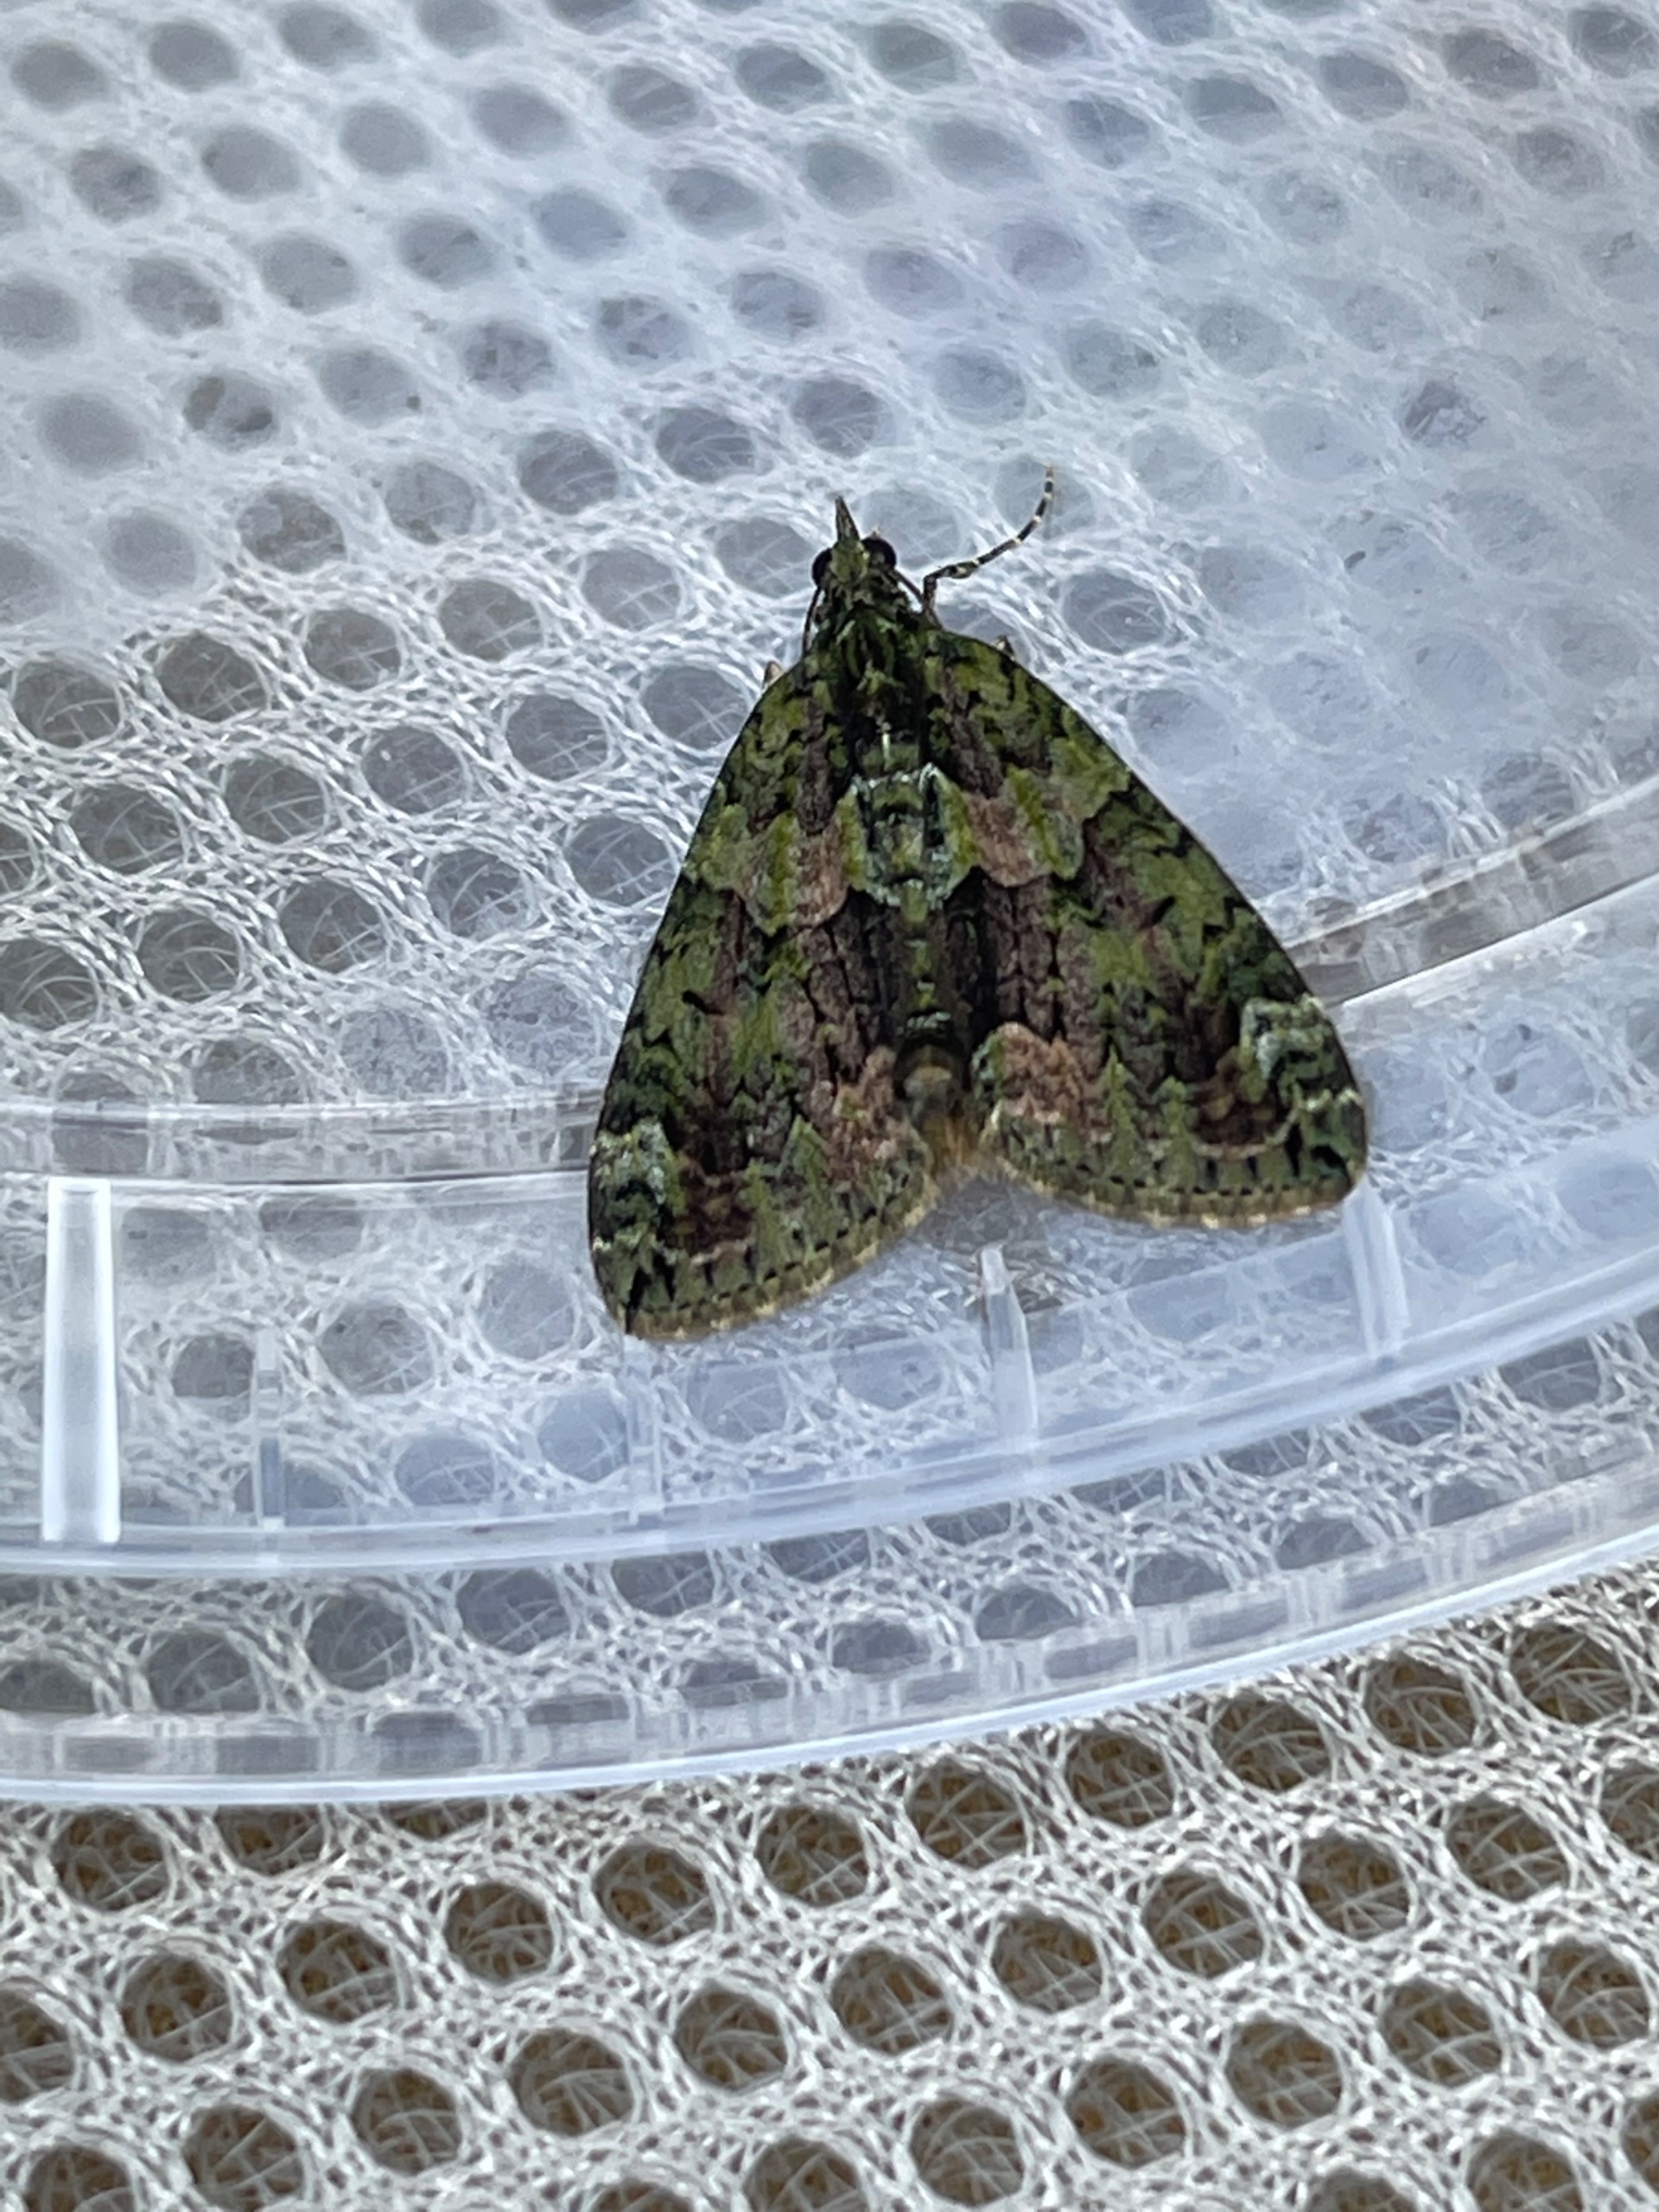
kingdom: Animalia
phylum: Arthropoda
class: Insecta
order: Lepidoptera
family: Geometridae
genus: Chloroclysta
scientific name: Chloroclysta siterata
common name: Brungrøn bladmåler
